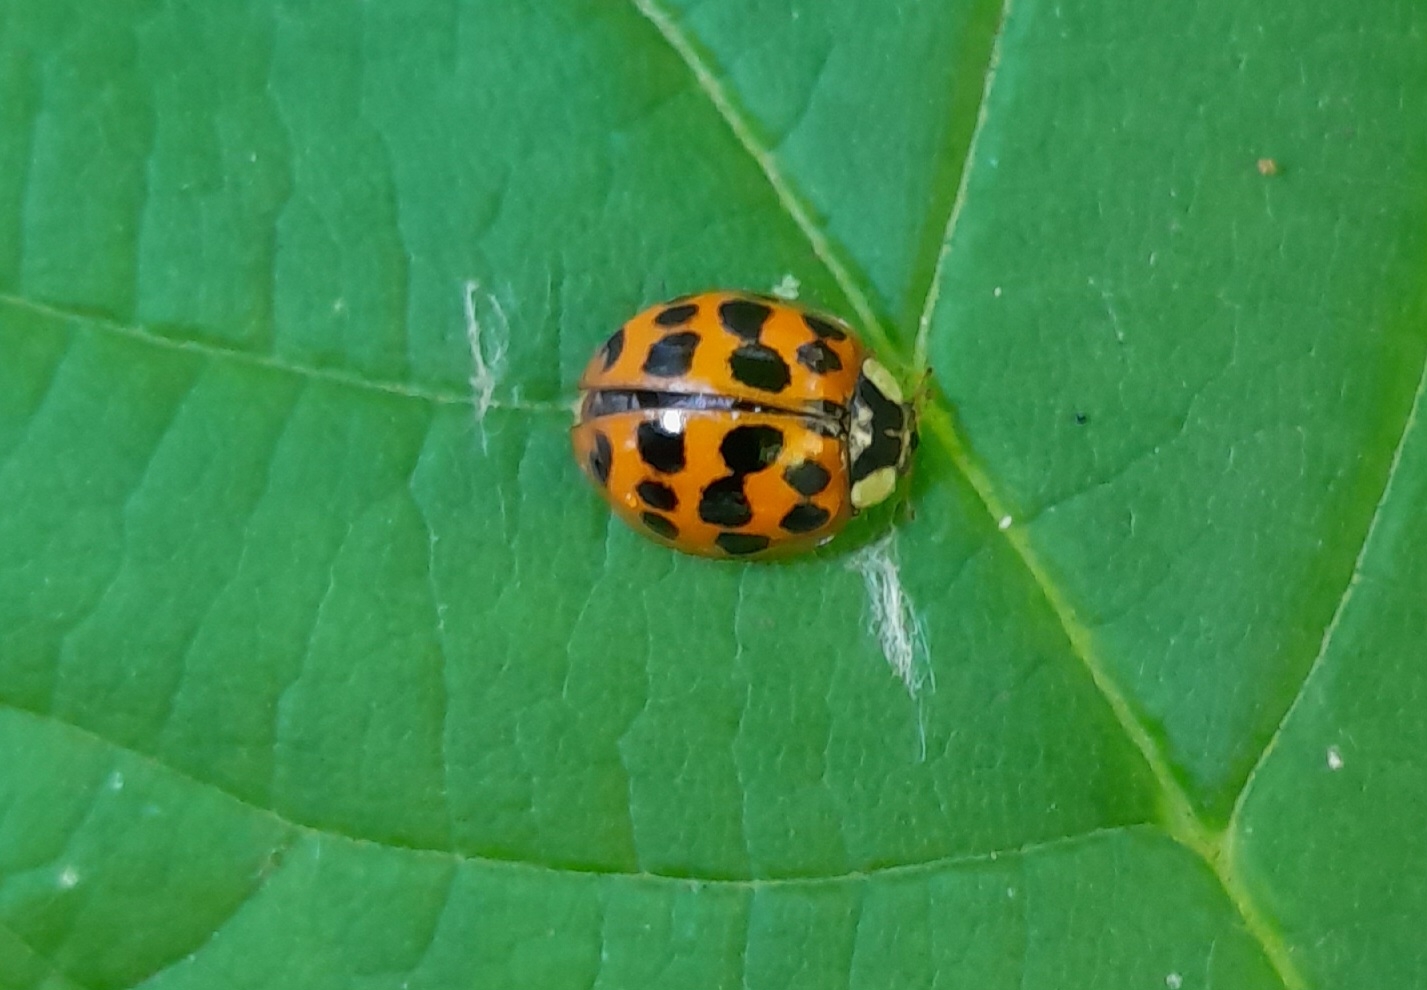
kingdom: Animalia
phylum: Arthropoda
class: Insecta
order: Coleoptera
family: Coccinellidae
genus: Harmonia
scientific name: Harmonia axyridis
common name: Harlekinmariehøne
